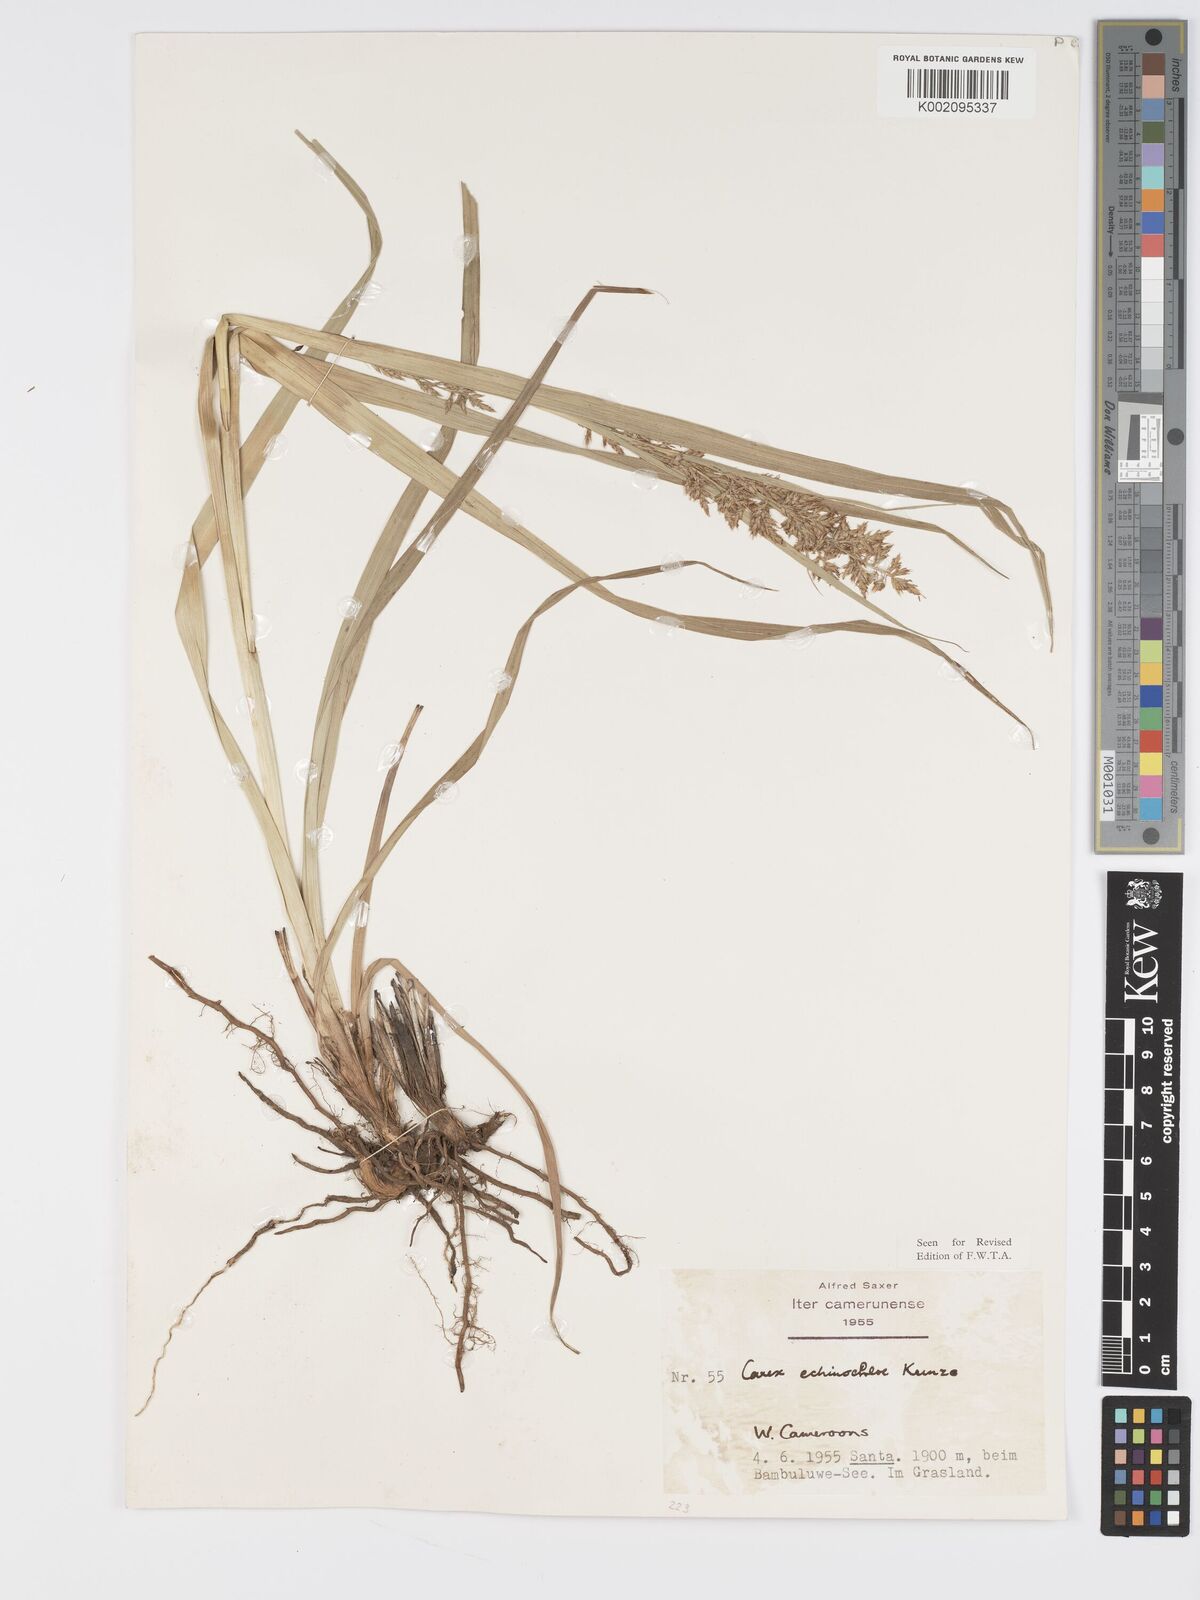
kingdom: Plantae
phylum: Tracheophyta
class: Liliopsida
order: Poales
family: Cyperaceae
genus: Carex
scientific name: Carex echinochloe
